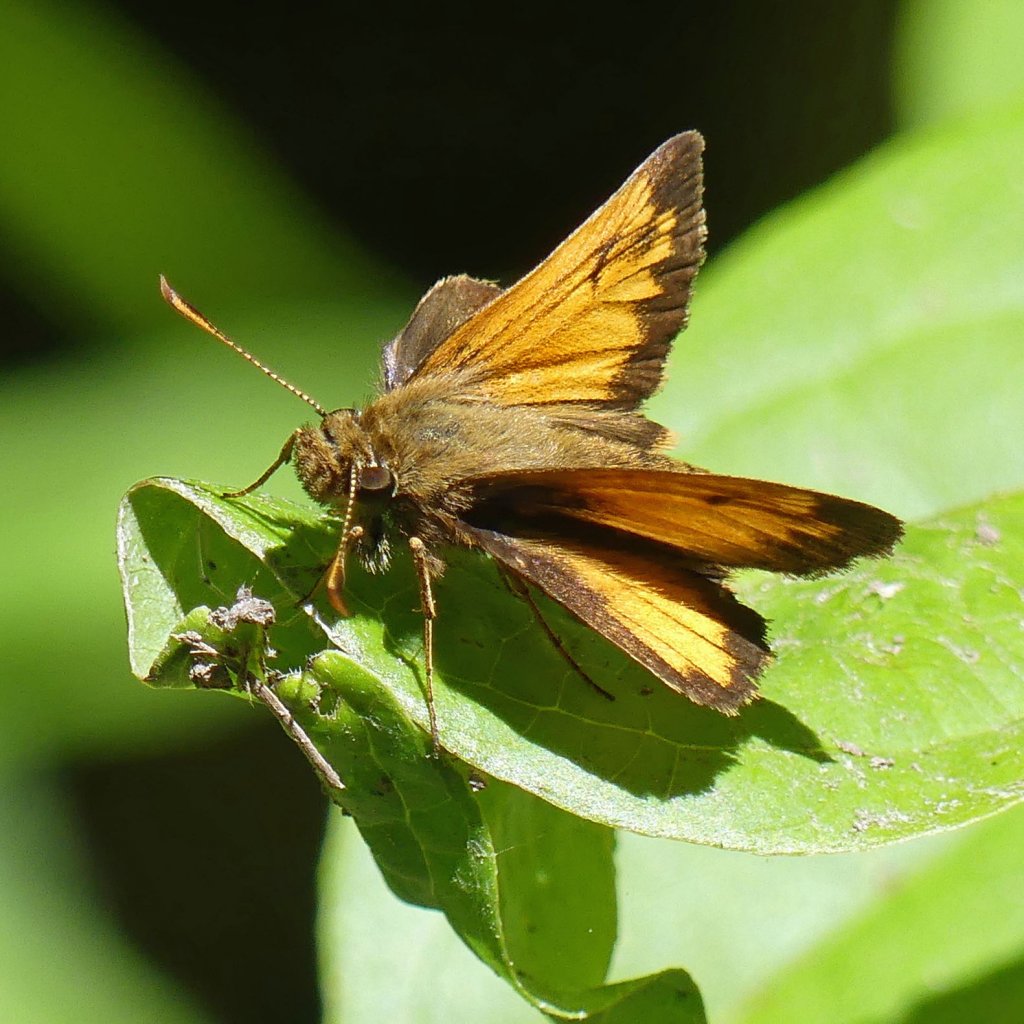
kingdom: Animalia
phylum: Arthropoda
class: Insecta
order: Lepidoptera
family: Hesperiidae
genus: Lon
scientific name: Lon hobomok
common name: Hobomok Skipper
